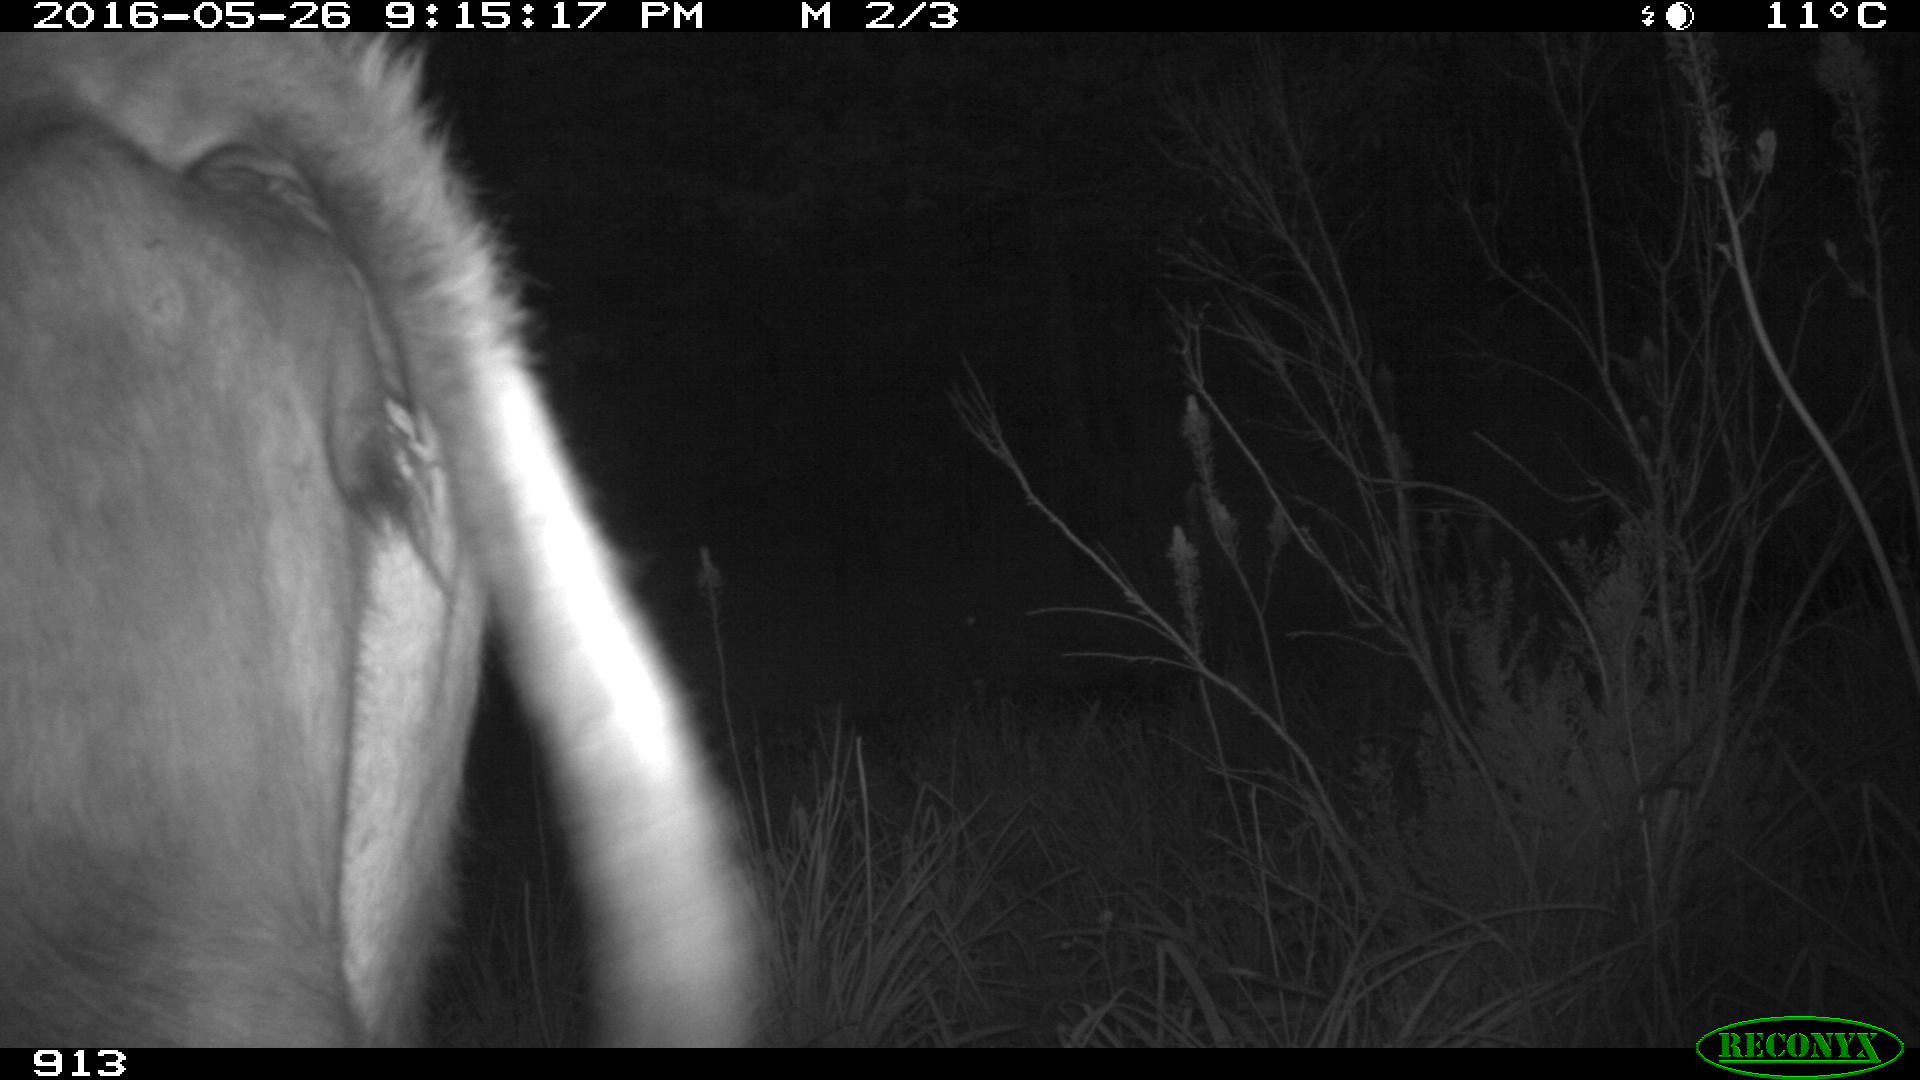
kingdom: Animalia
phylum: Chordata
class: Mammalia
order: Artiodactyla
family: Bovidae
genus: Bos
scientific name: Bos taurus
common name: Domesticated cattle
